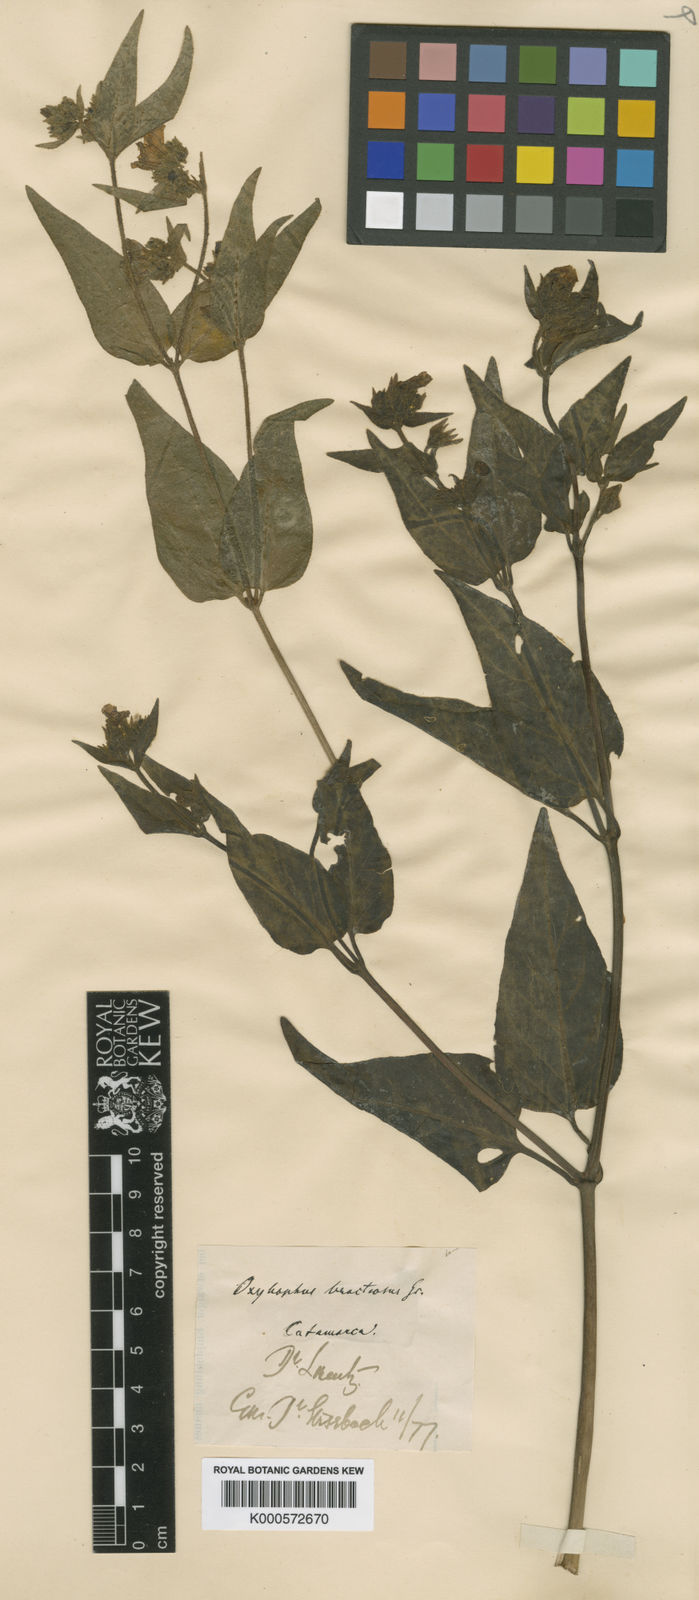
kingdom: Plantae
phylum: Tracheophyta
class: Magnoliopsida
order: Caryophyllales
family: Nyctaginaceae
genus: Mirabilis
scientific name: Mirabilis bracteosa
